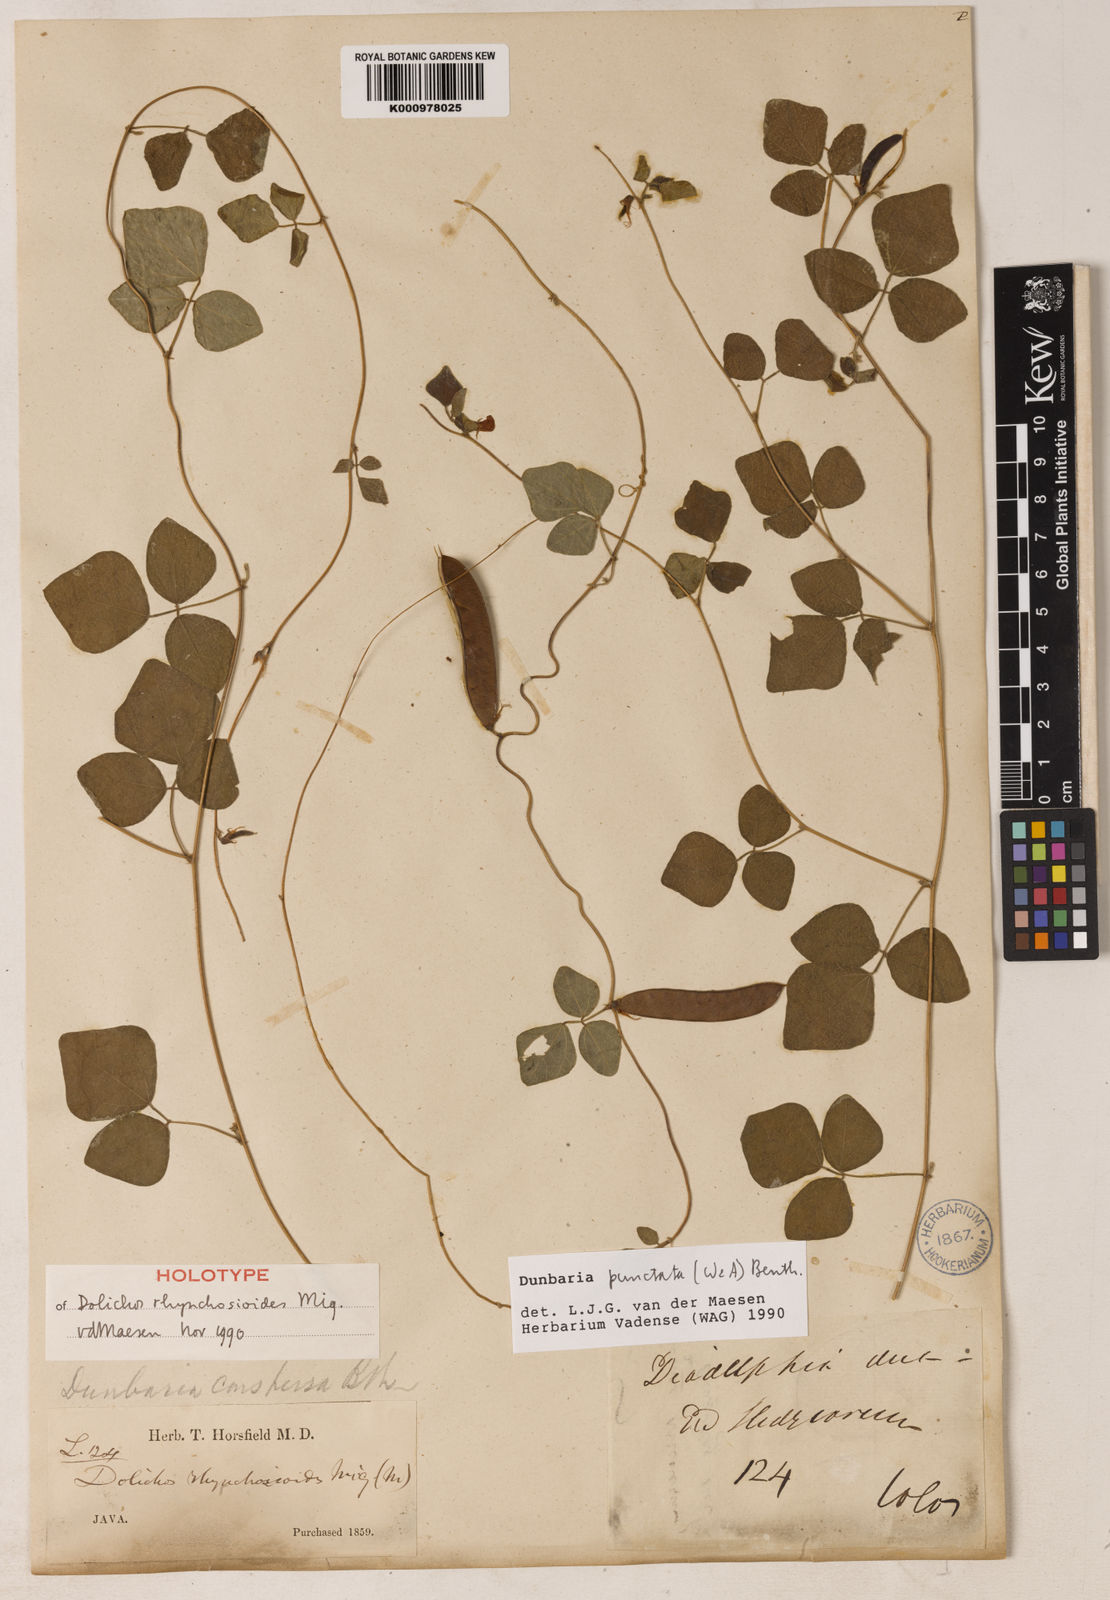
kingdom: Plantae
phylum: Tracheophyta
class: Magnoliopsida
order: Fabales
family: Fabaceae
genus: Dunbaria
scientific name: Dunbaria punctata
